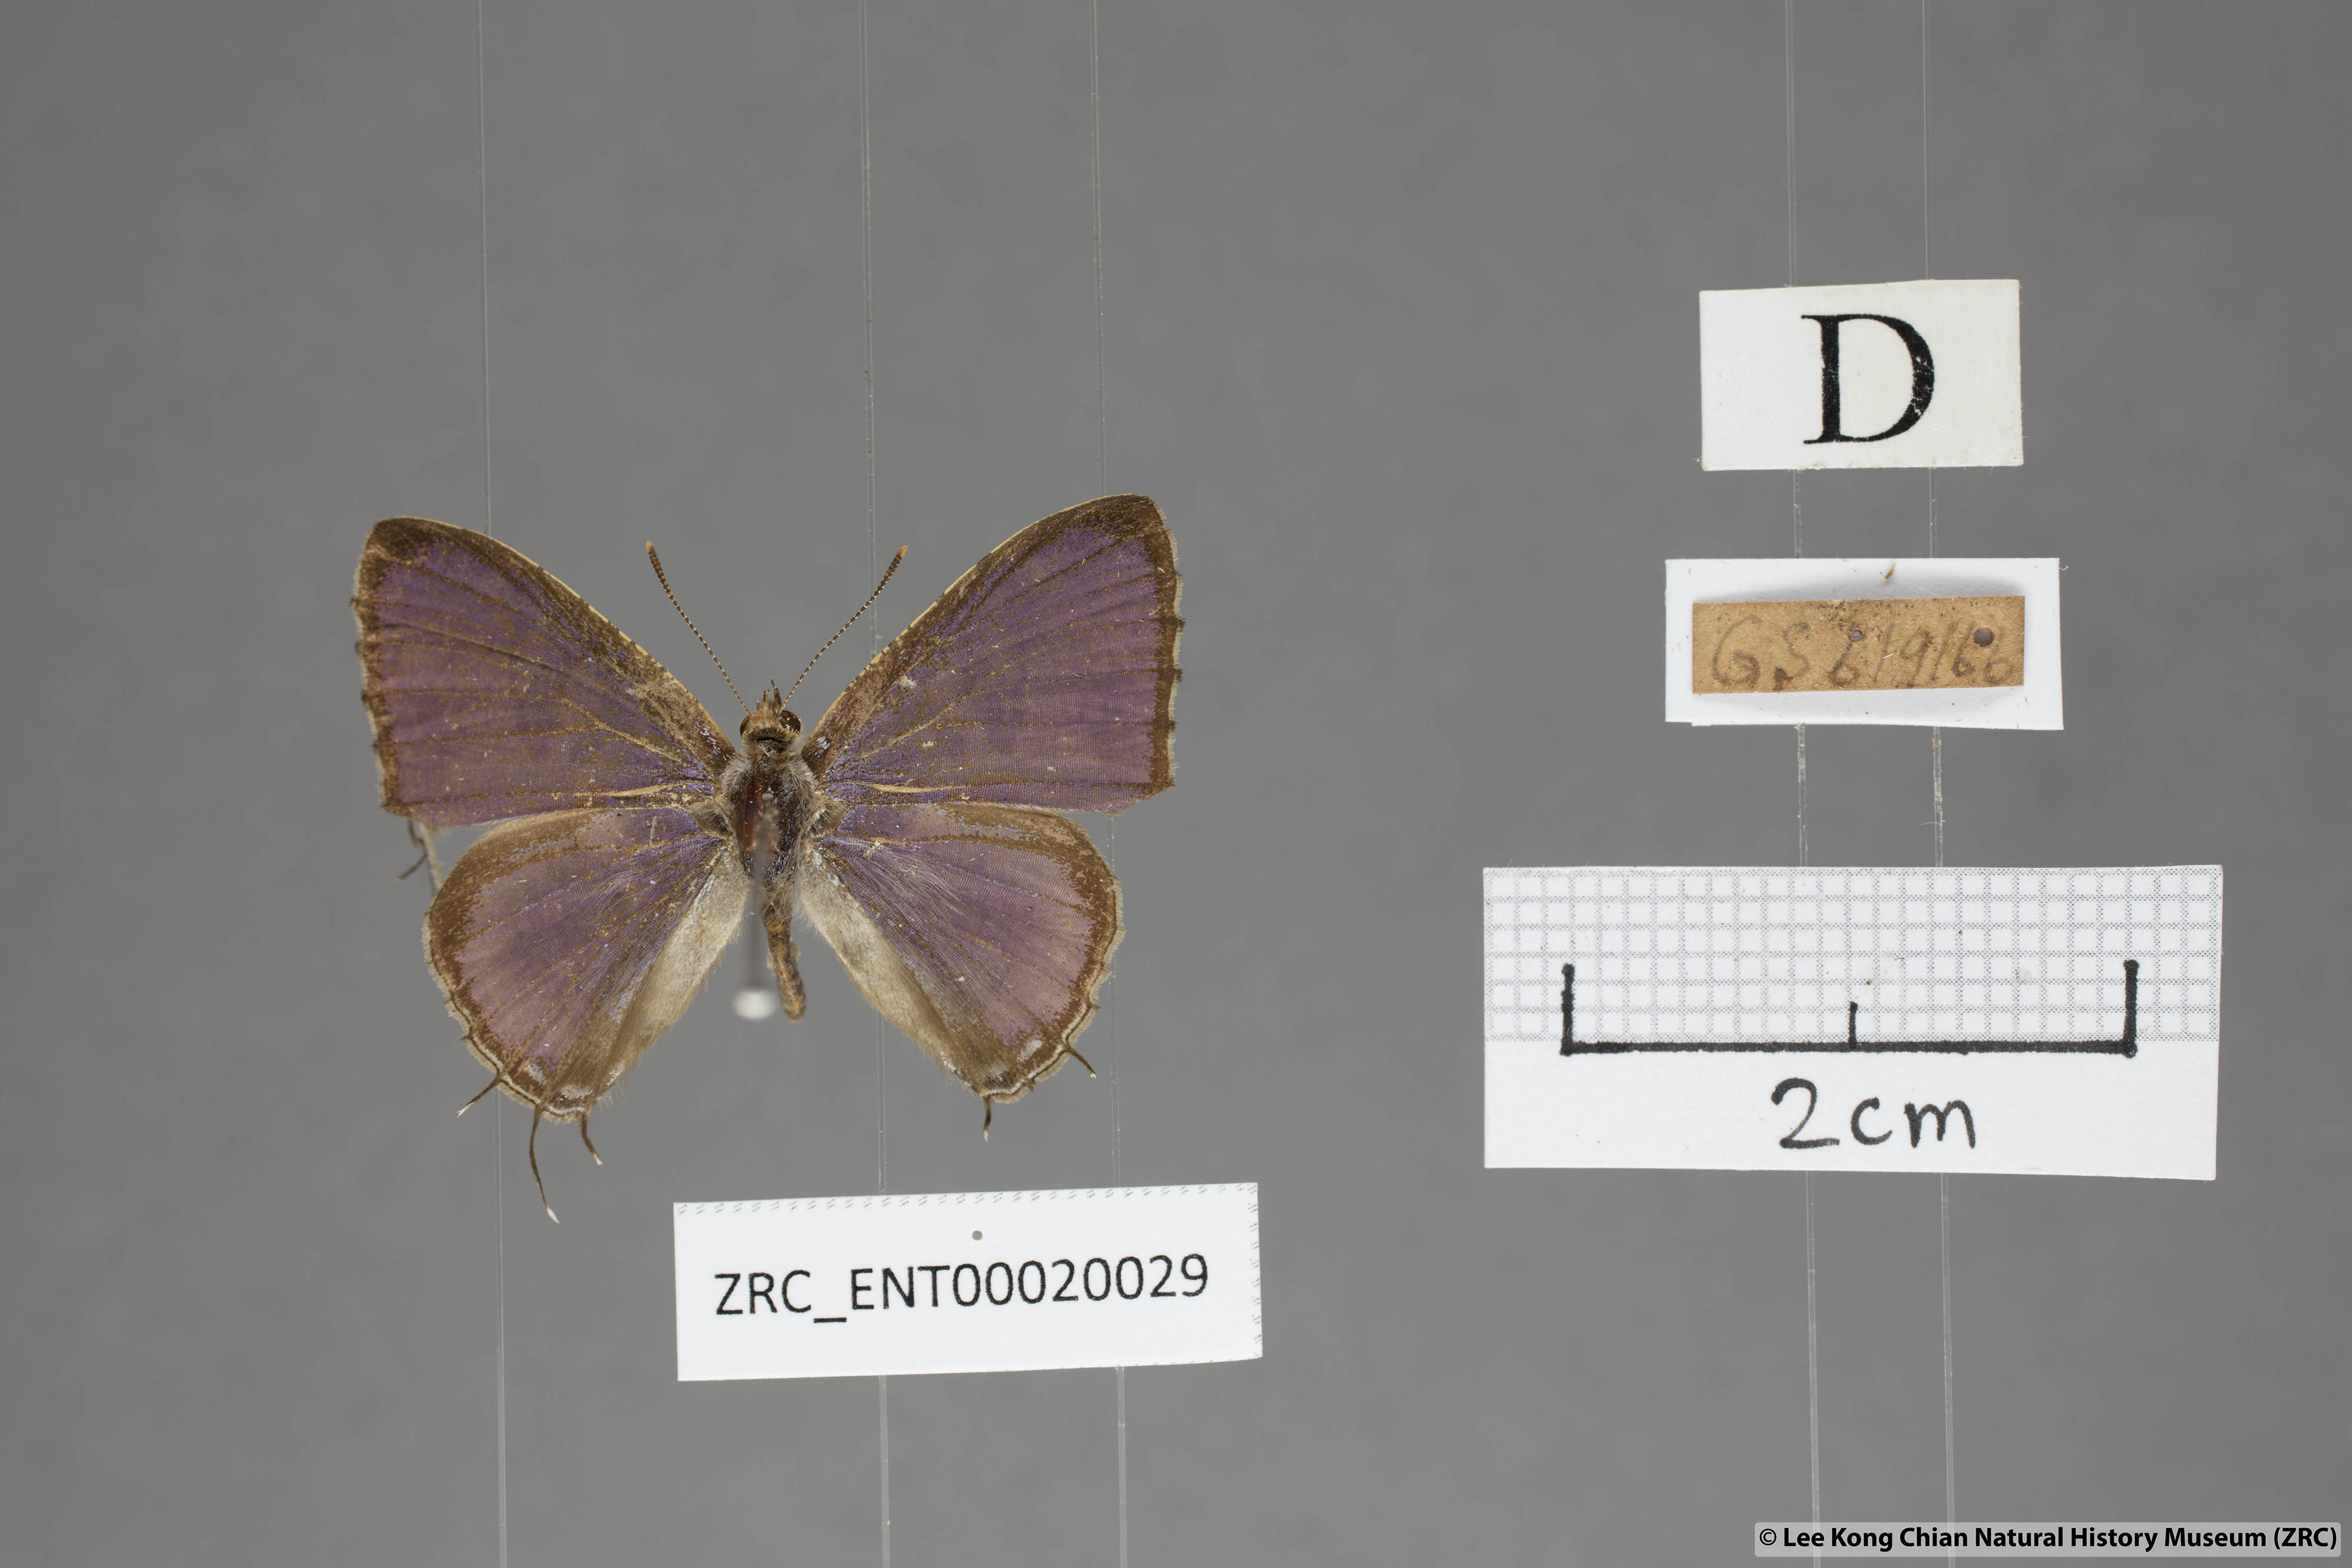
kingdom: Animalia
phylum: Arthropoda
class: Insecta
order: Lepidoptera
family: Lycaenidae
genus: Catapaecilma
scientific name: Catapaecilma major
